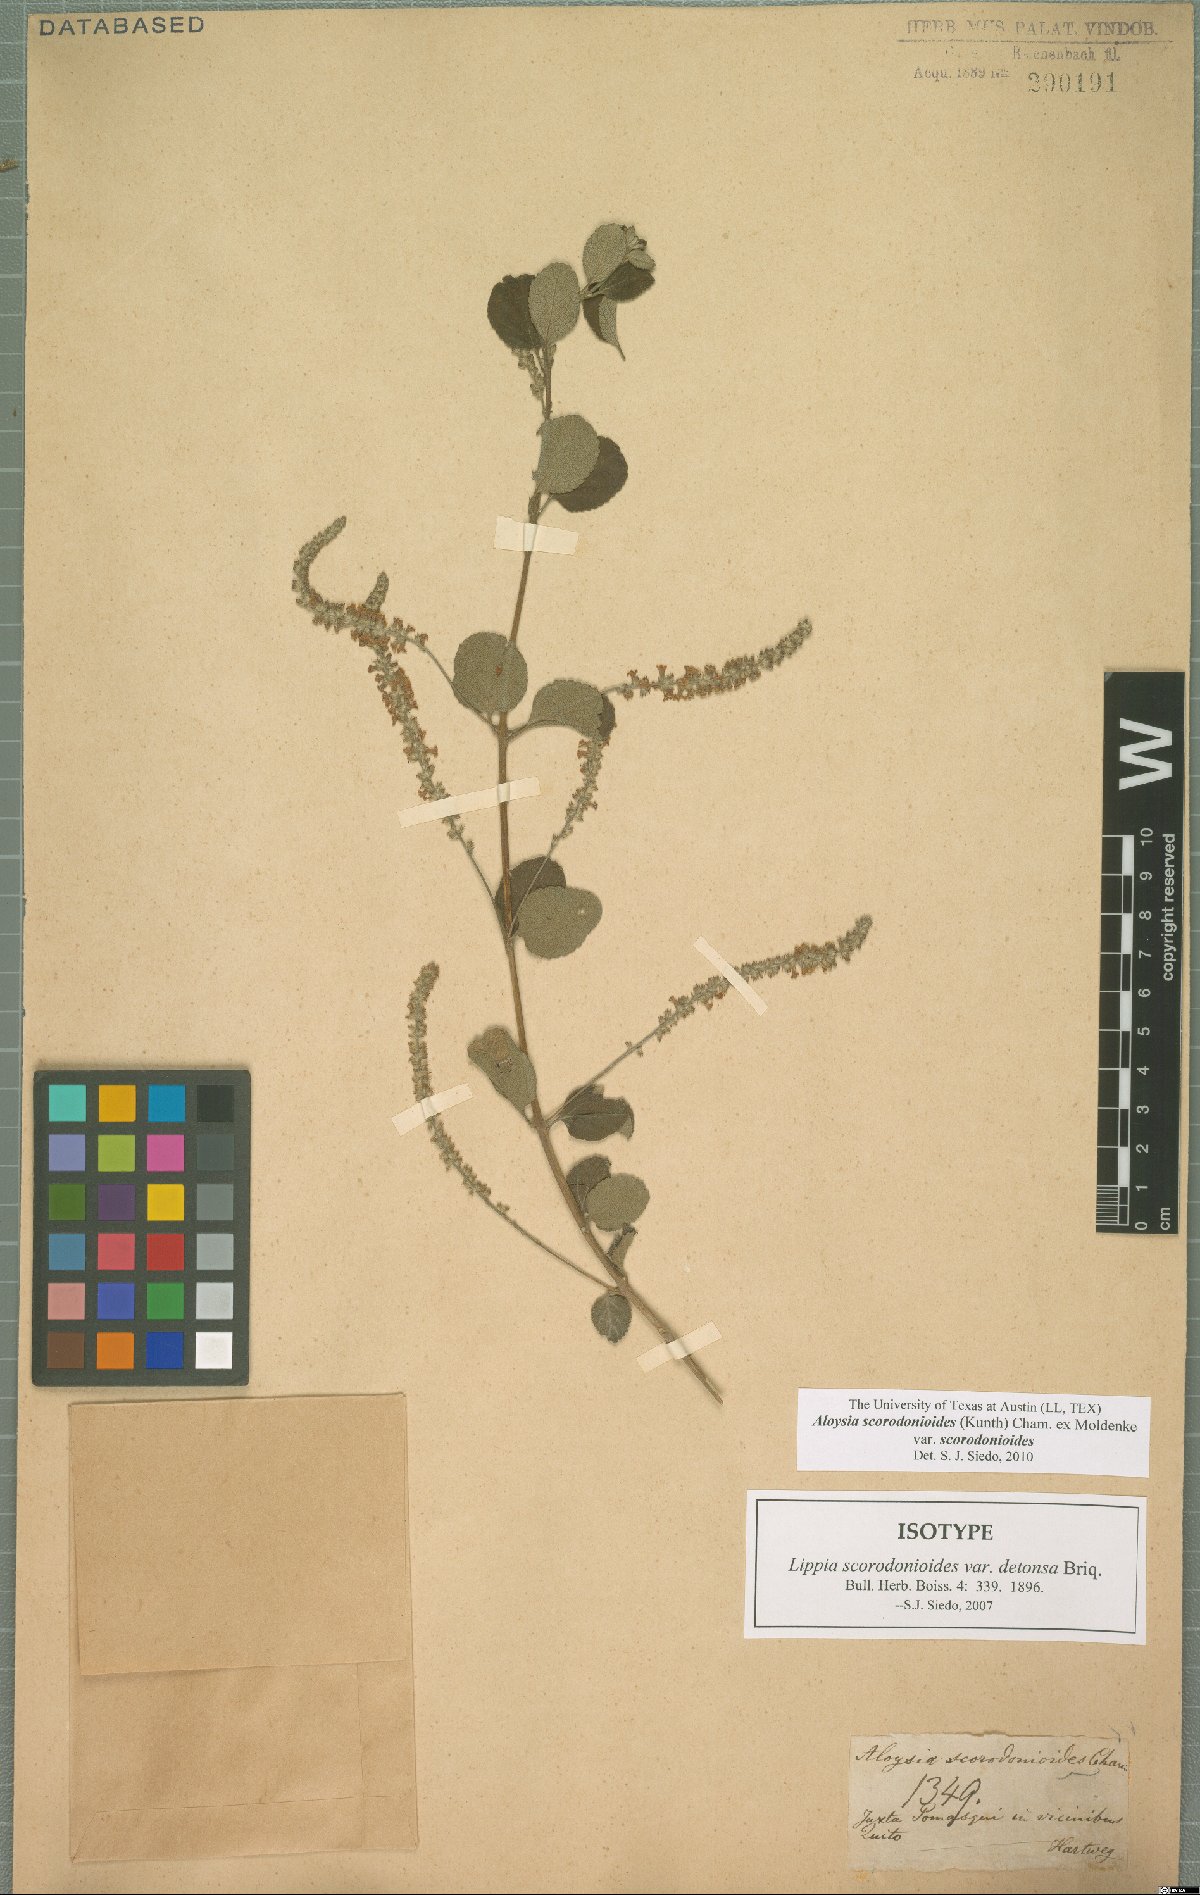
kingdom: Plantae
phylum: Tracheophyta
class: Magnoliopsida
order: Lamiales
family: Verbenaceae
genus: Aloysia
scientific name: Aloysia scorodonioides
